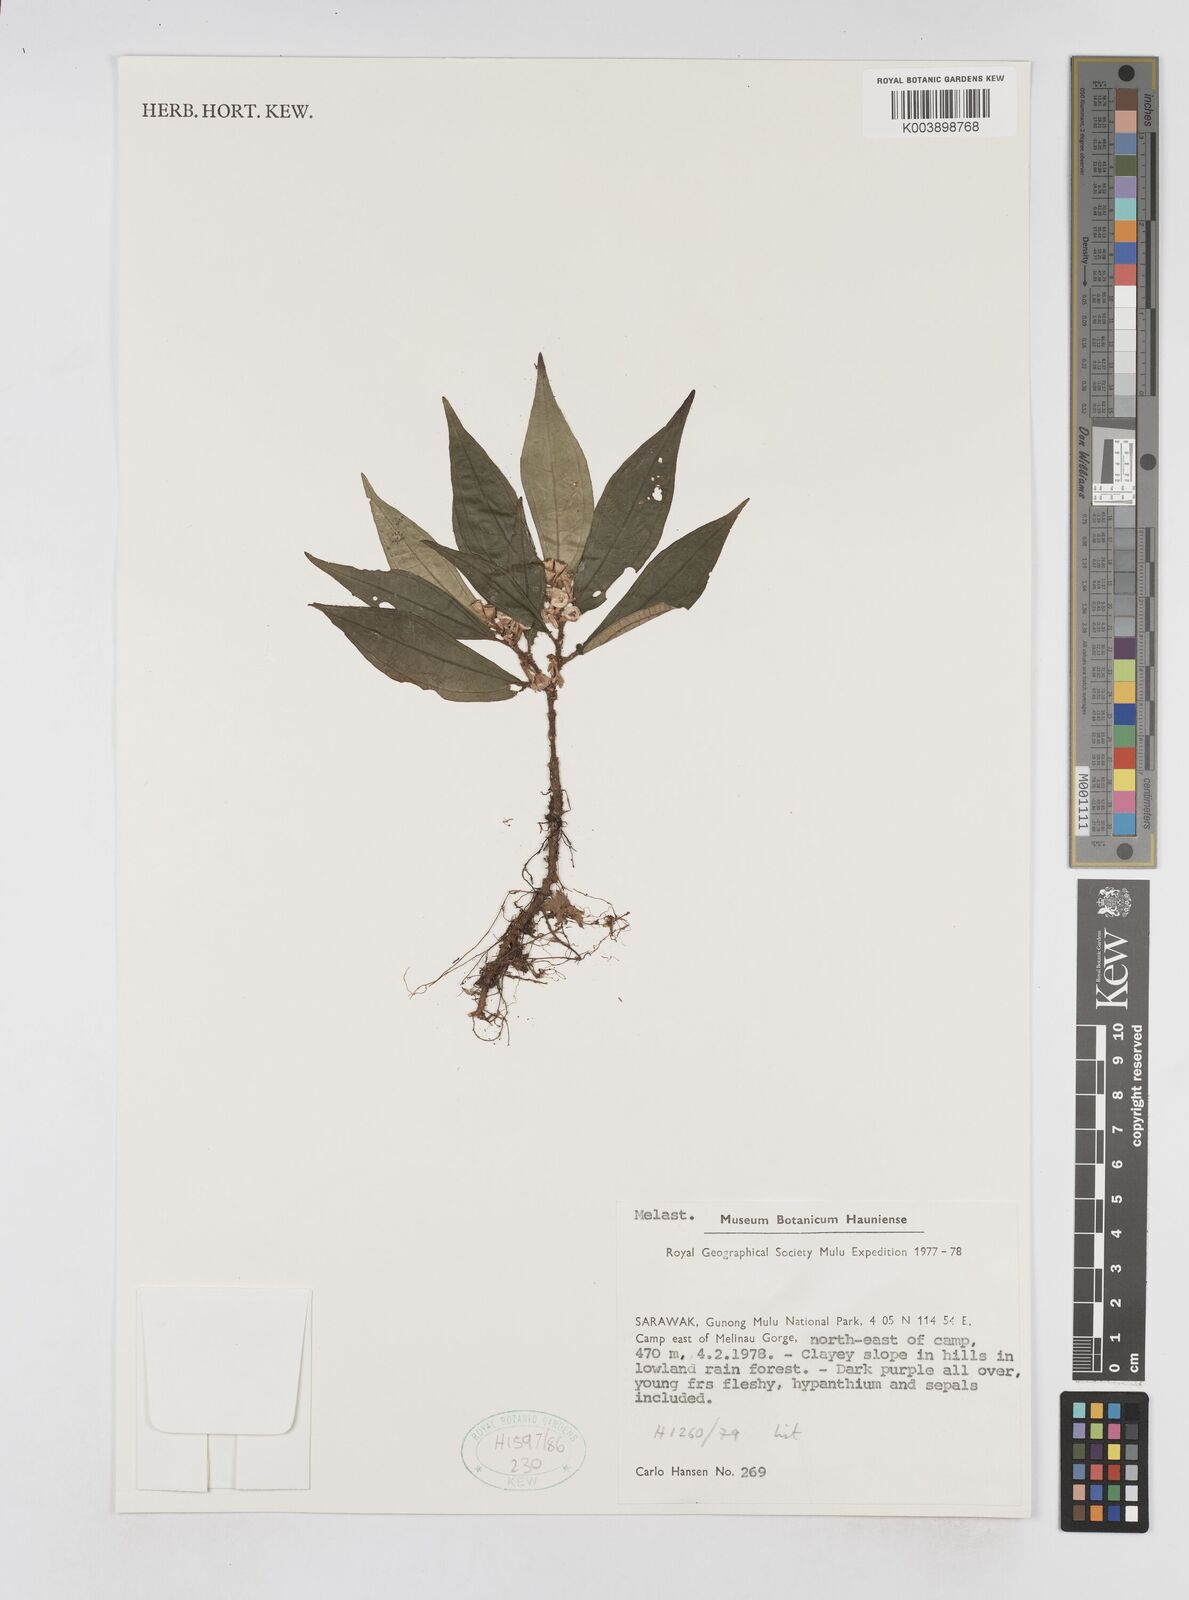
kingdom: Plantae
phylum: Tracheophyta
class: Magnoliopsida
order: Myrtales
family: Melastomataceae
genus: Sonerila
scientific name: Sonerila
